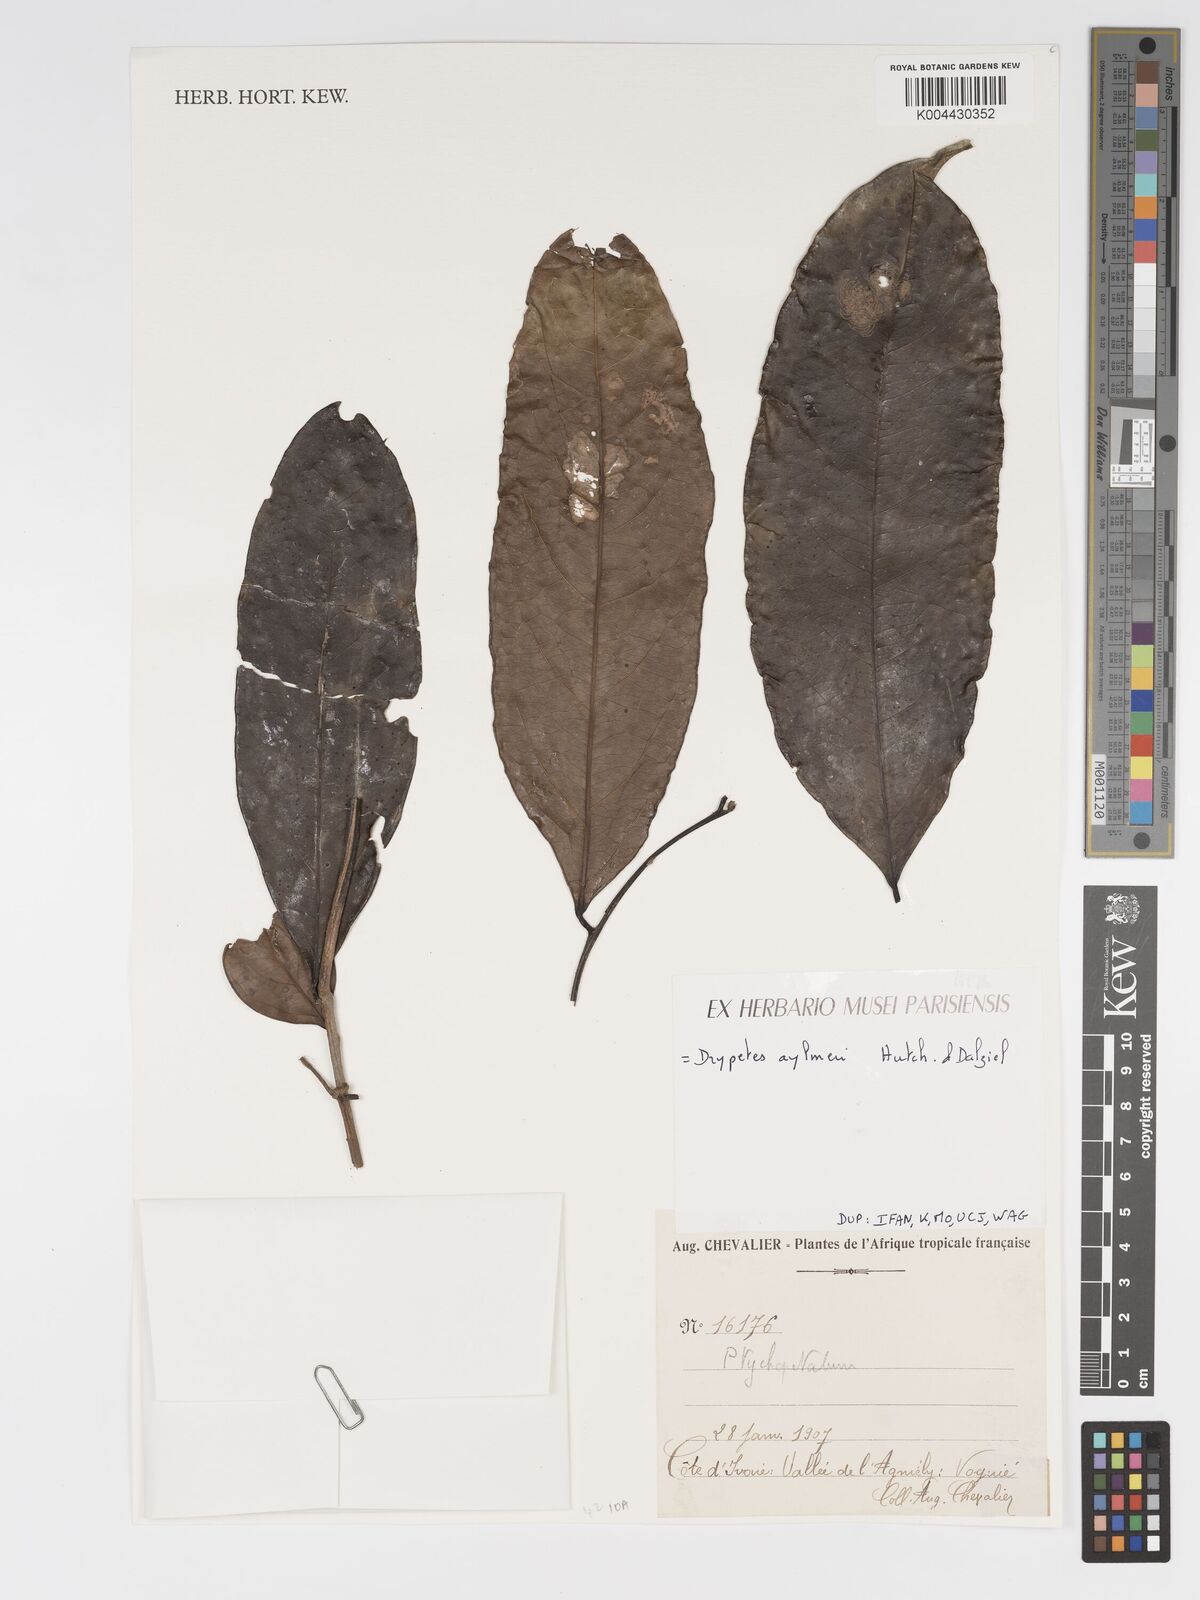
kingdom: Plantae
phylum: Tracheophyta
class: Magnoliopsida
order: Malpighiales
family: Putranjivaceae
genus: Drypetes
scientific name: Drypetes aylmeri
